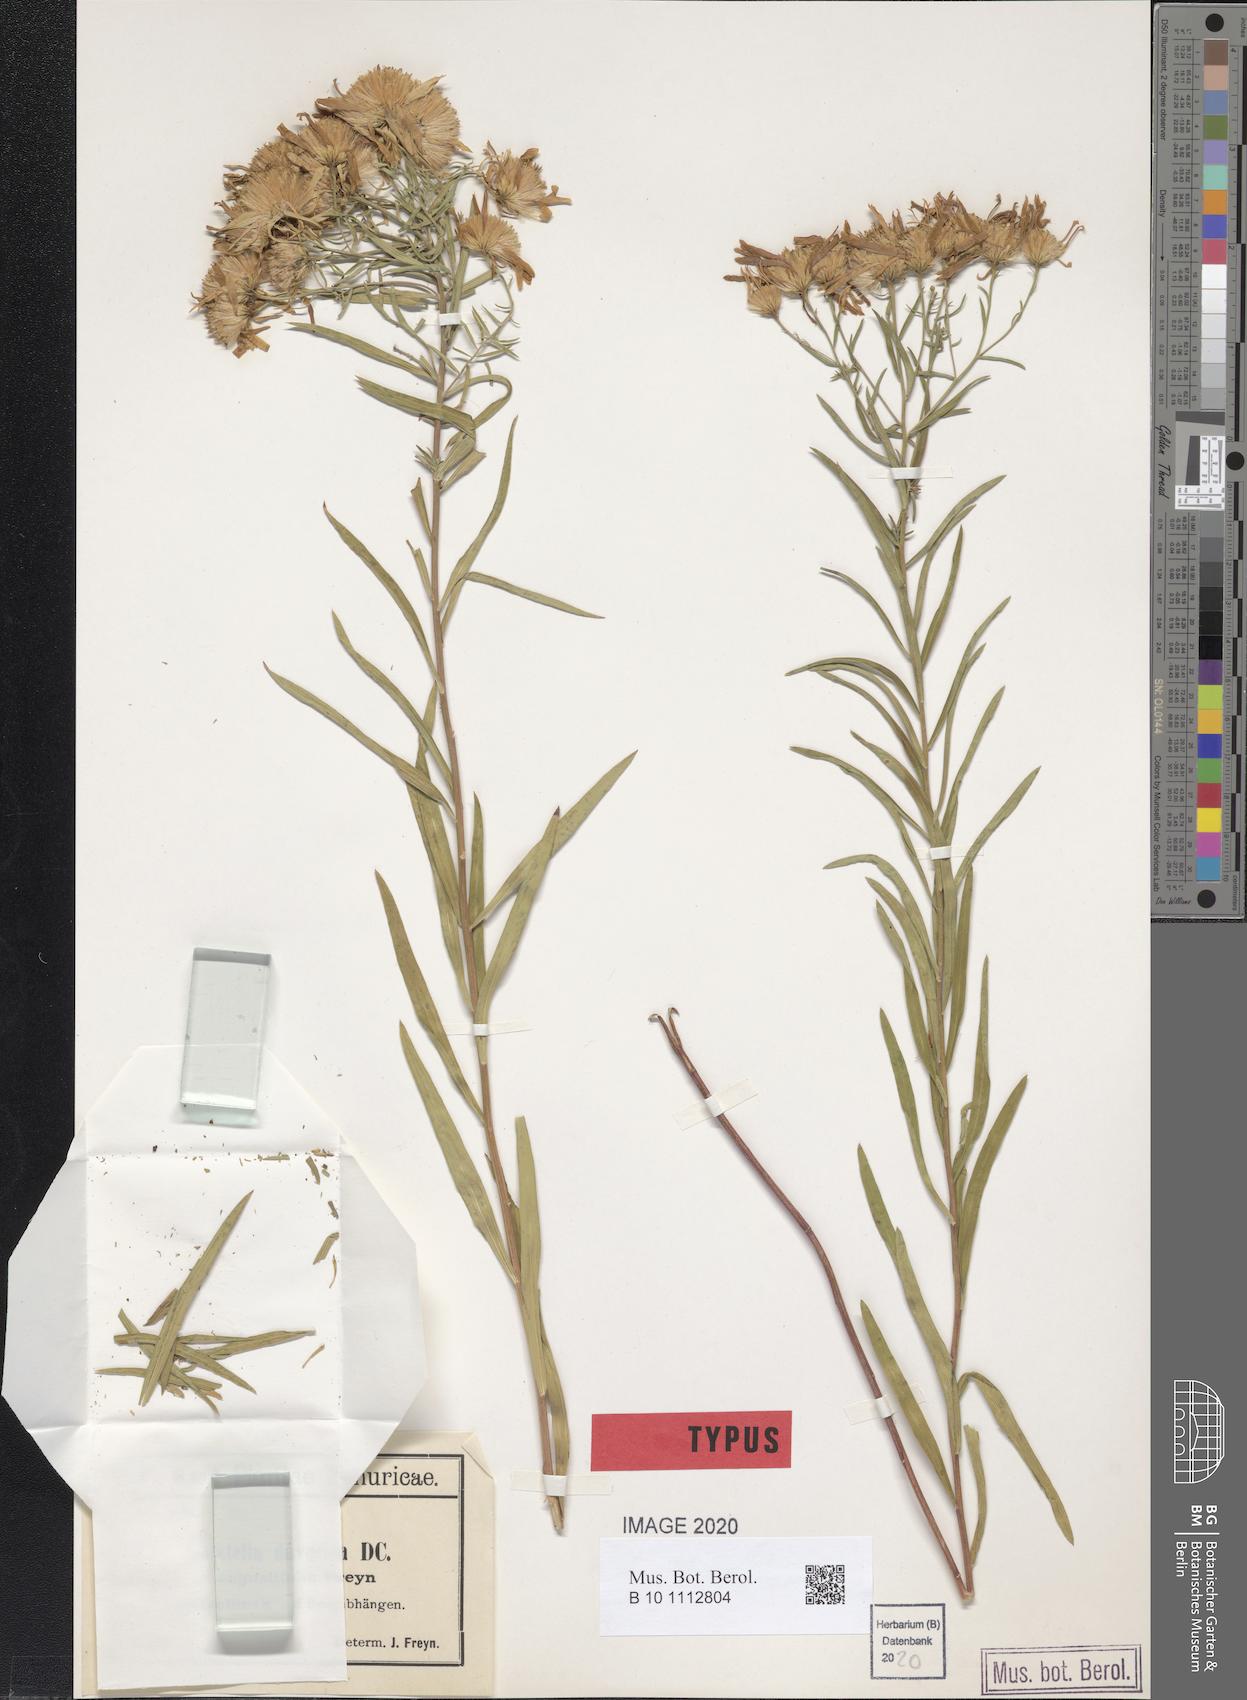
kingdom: Plantae
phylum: Tracheophyta
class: Magnoliopsida
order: Asterales
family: Asteraceae
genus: Galatella
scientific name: Galatella dahurica
